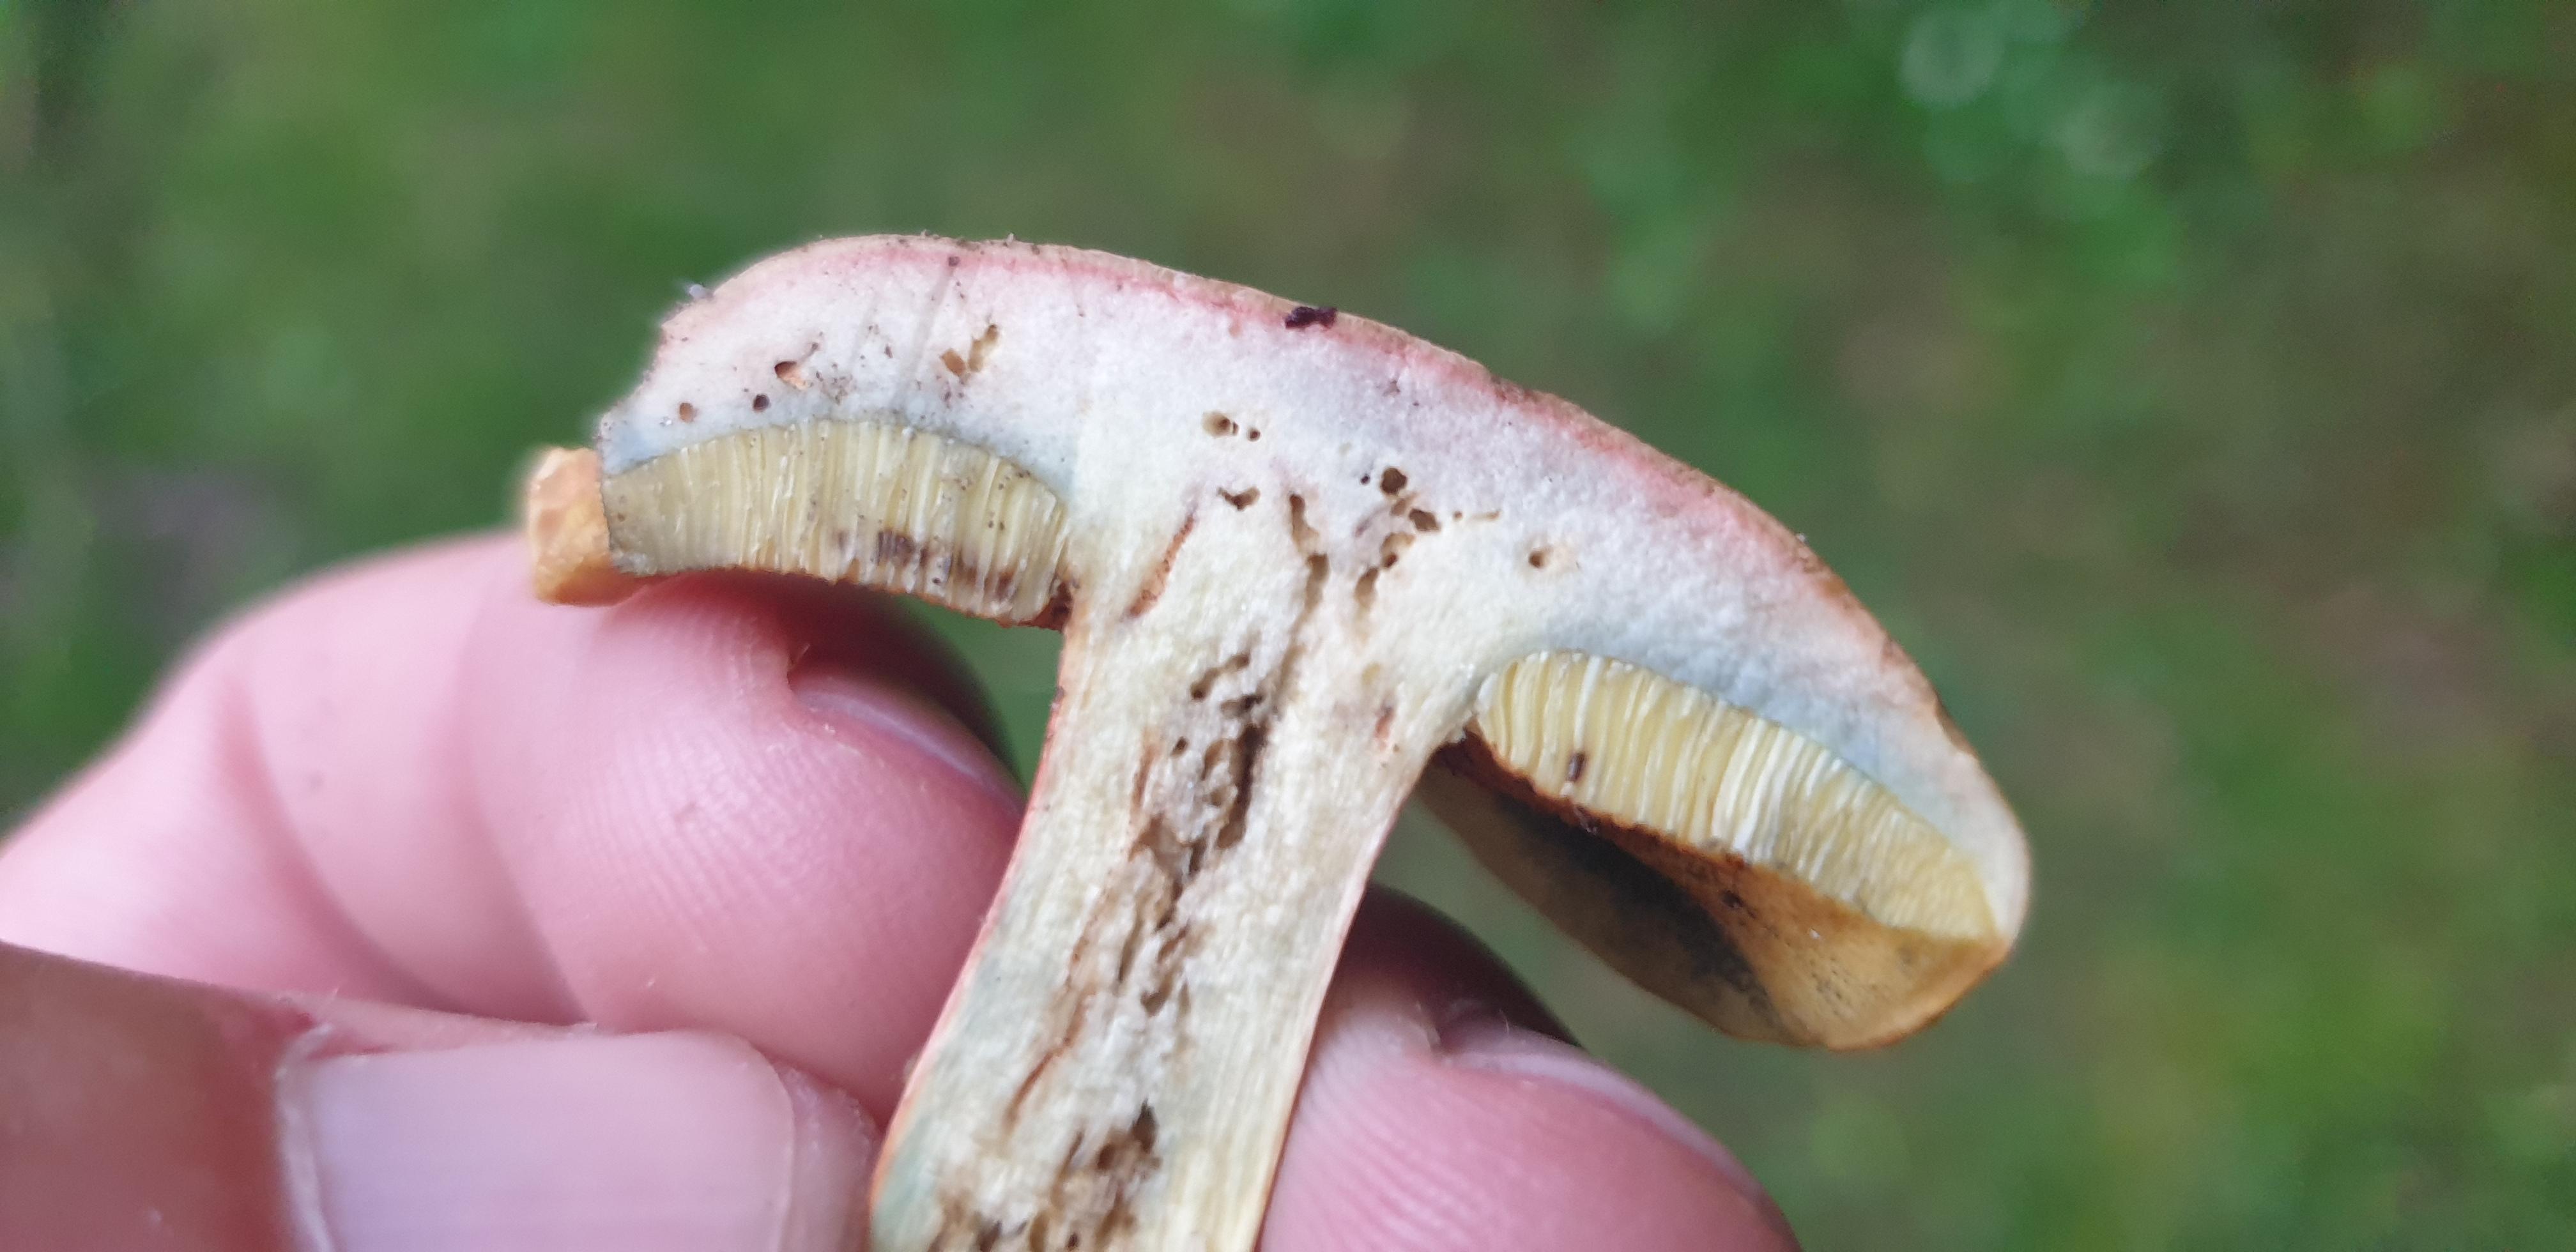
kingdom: Fungi
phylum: Basidiomycota
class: Agaricomycetes
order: Boletales
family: Boletaceae
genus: Hortiboletus
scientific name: Hortiboletus bubalinus
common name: aurora-rørhat
